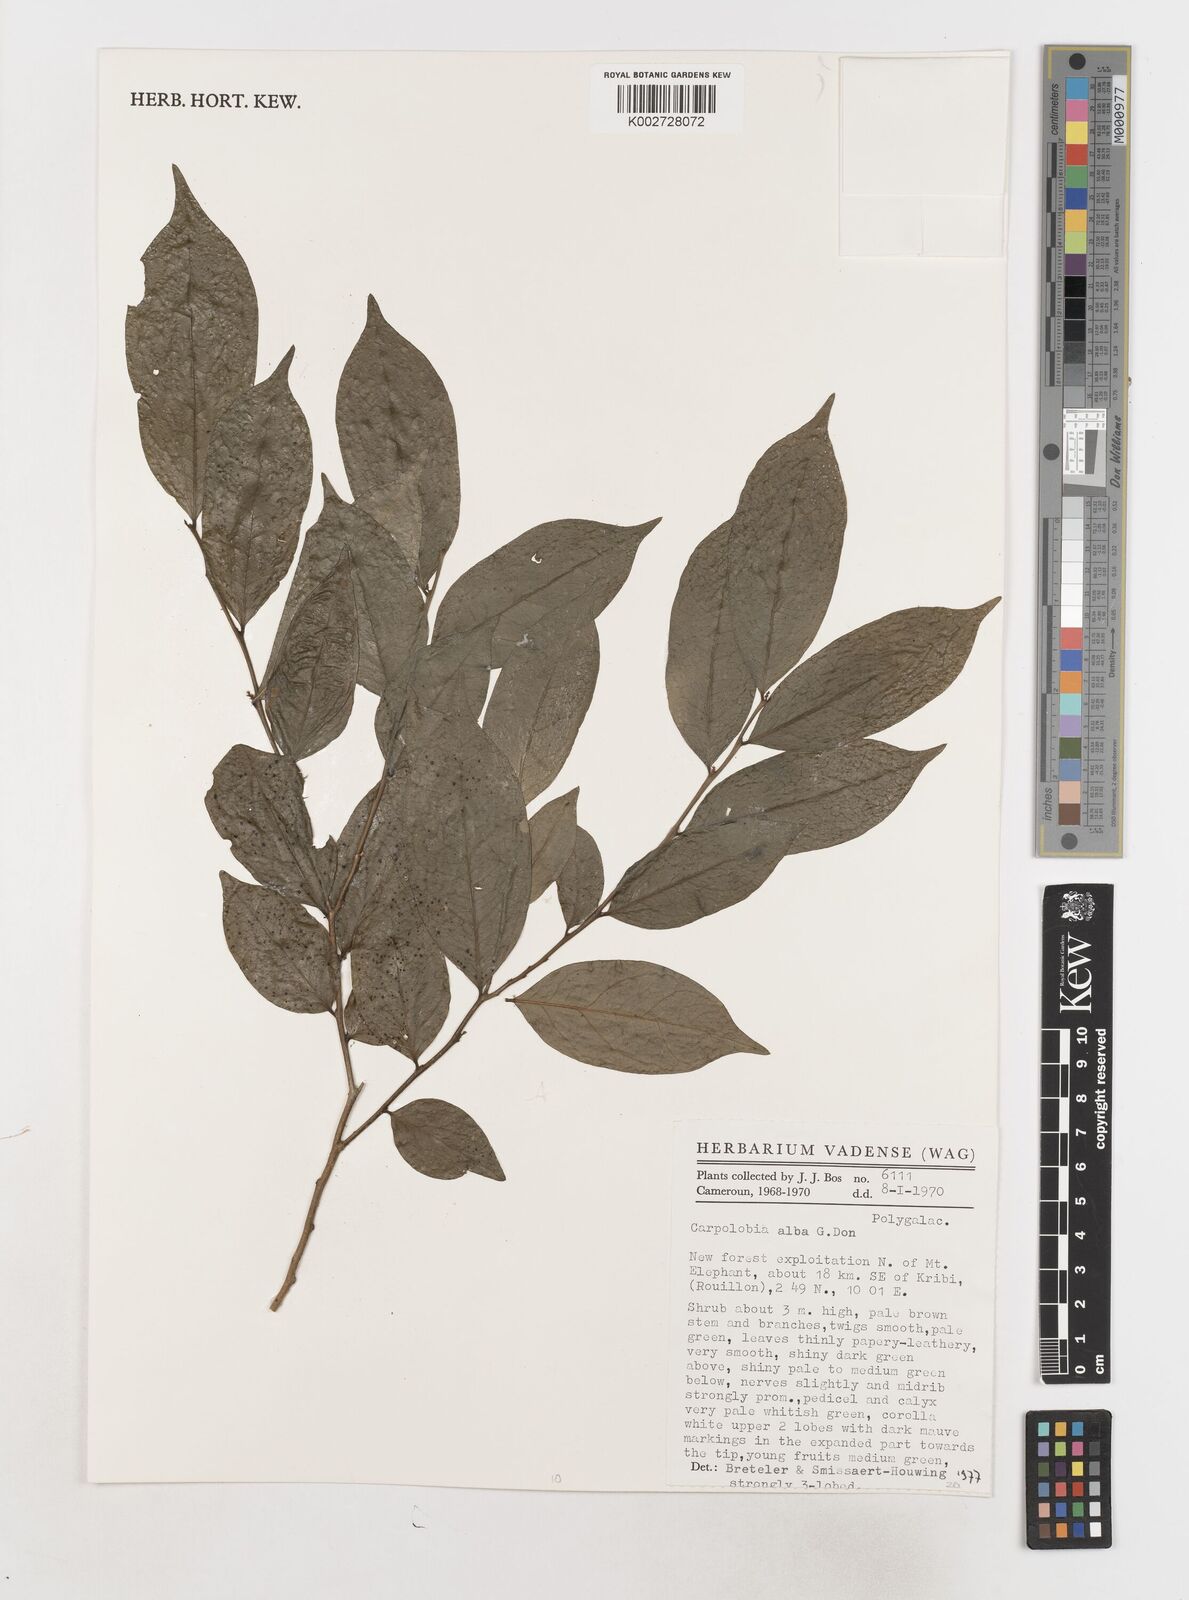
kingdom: Plantae
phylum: Tracheophyta
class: Magnoliopsida
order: Fabales
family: Polygalaceae
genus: Carpolobia
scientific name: Carpolobia alba
